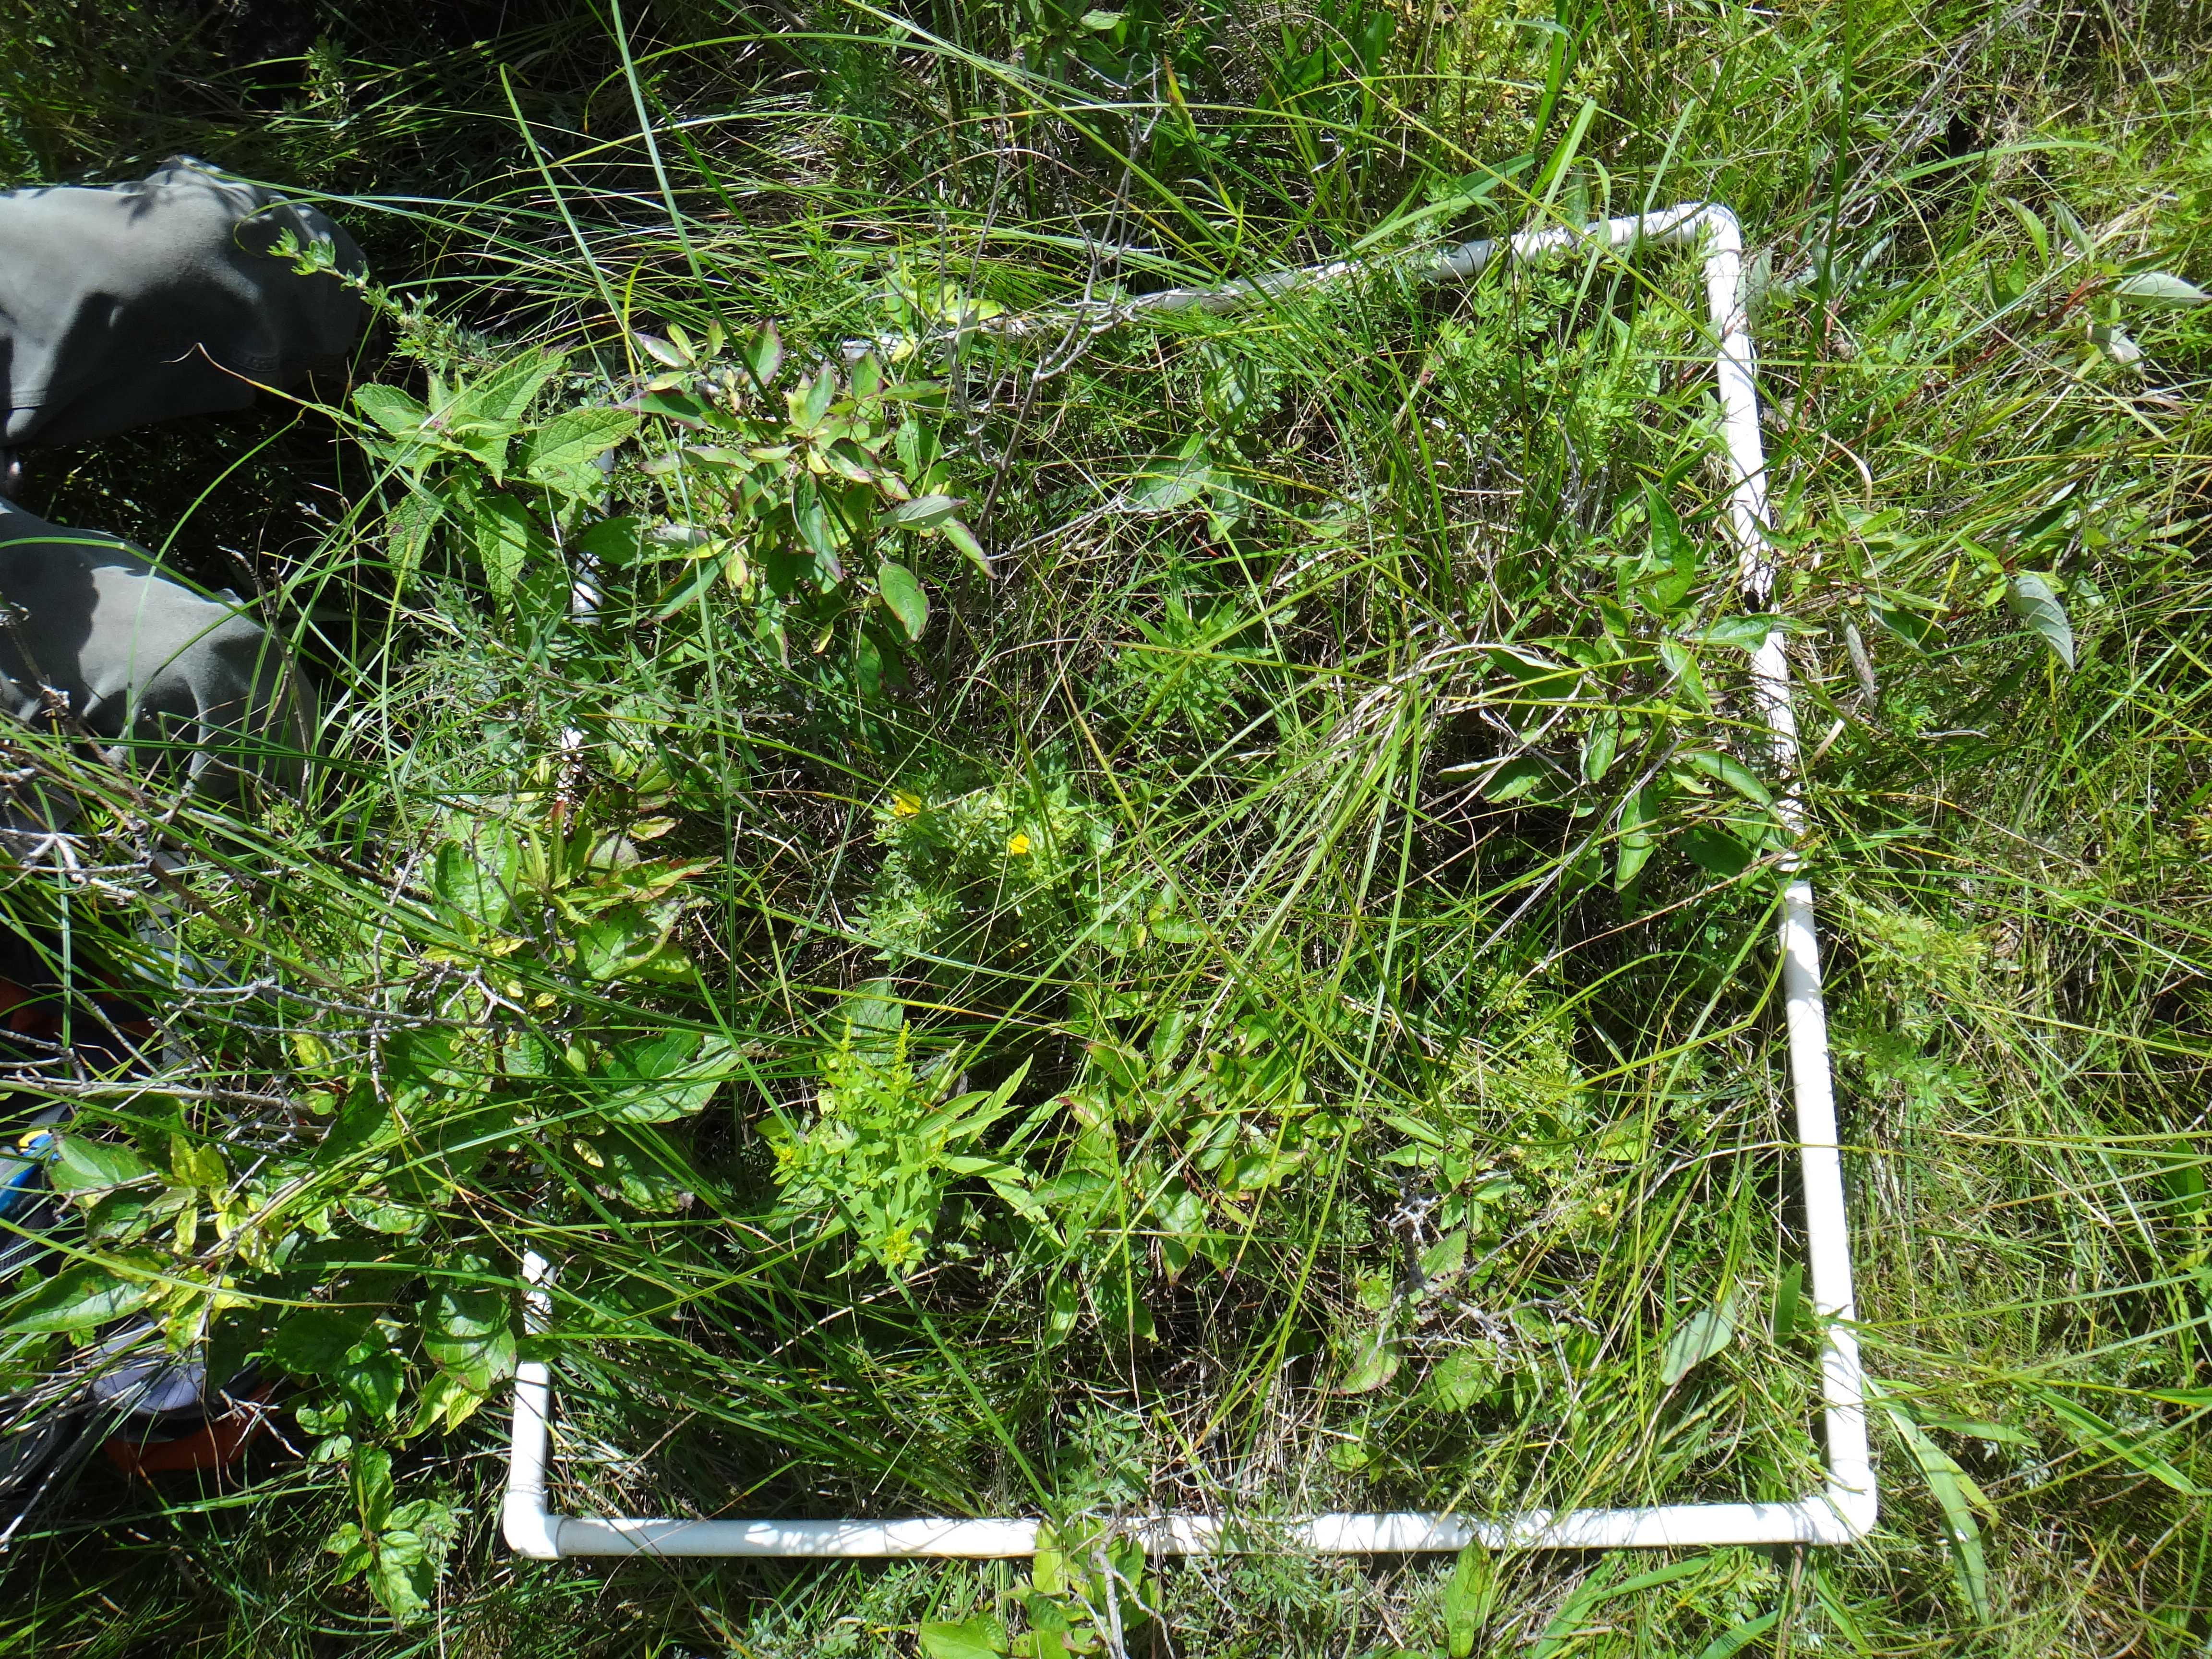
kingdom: Plantae
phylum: Tracheophyta
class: Magnoliopsida
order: Asterales
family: Asteraceae
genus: Symphyotrichum
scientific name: Symphyotrichum lateriflorum
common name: Calico aster
